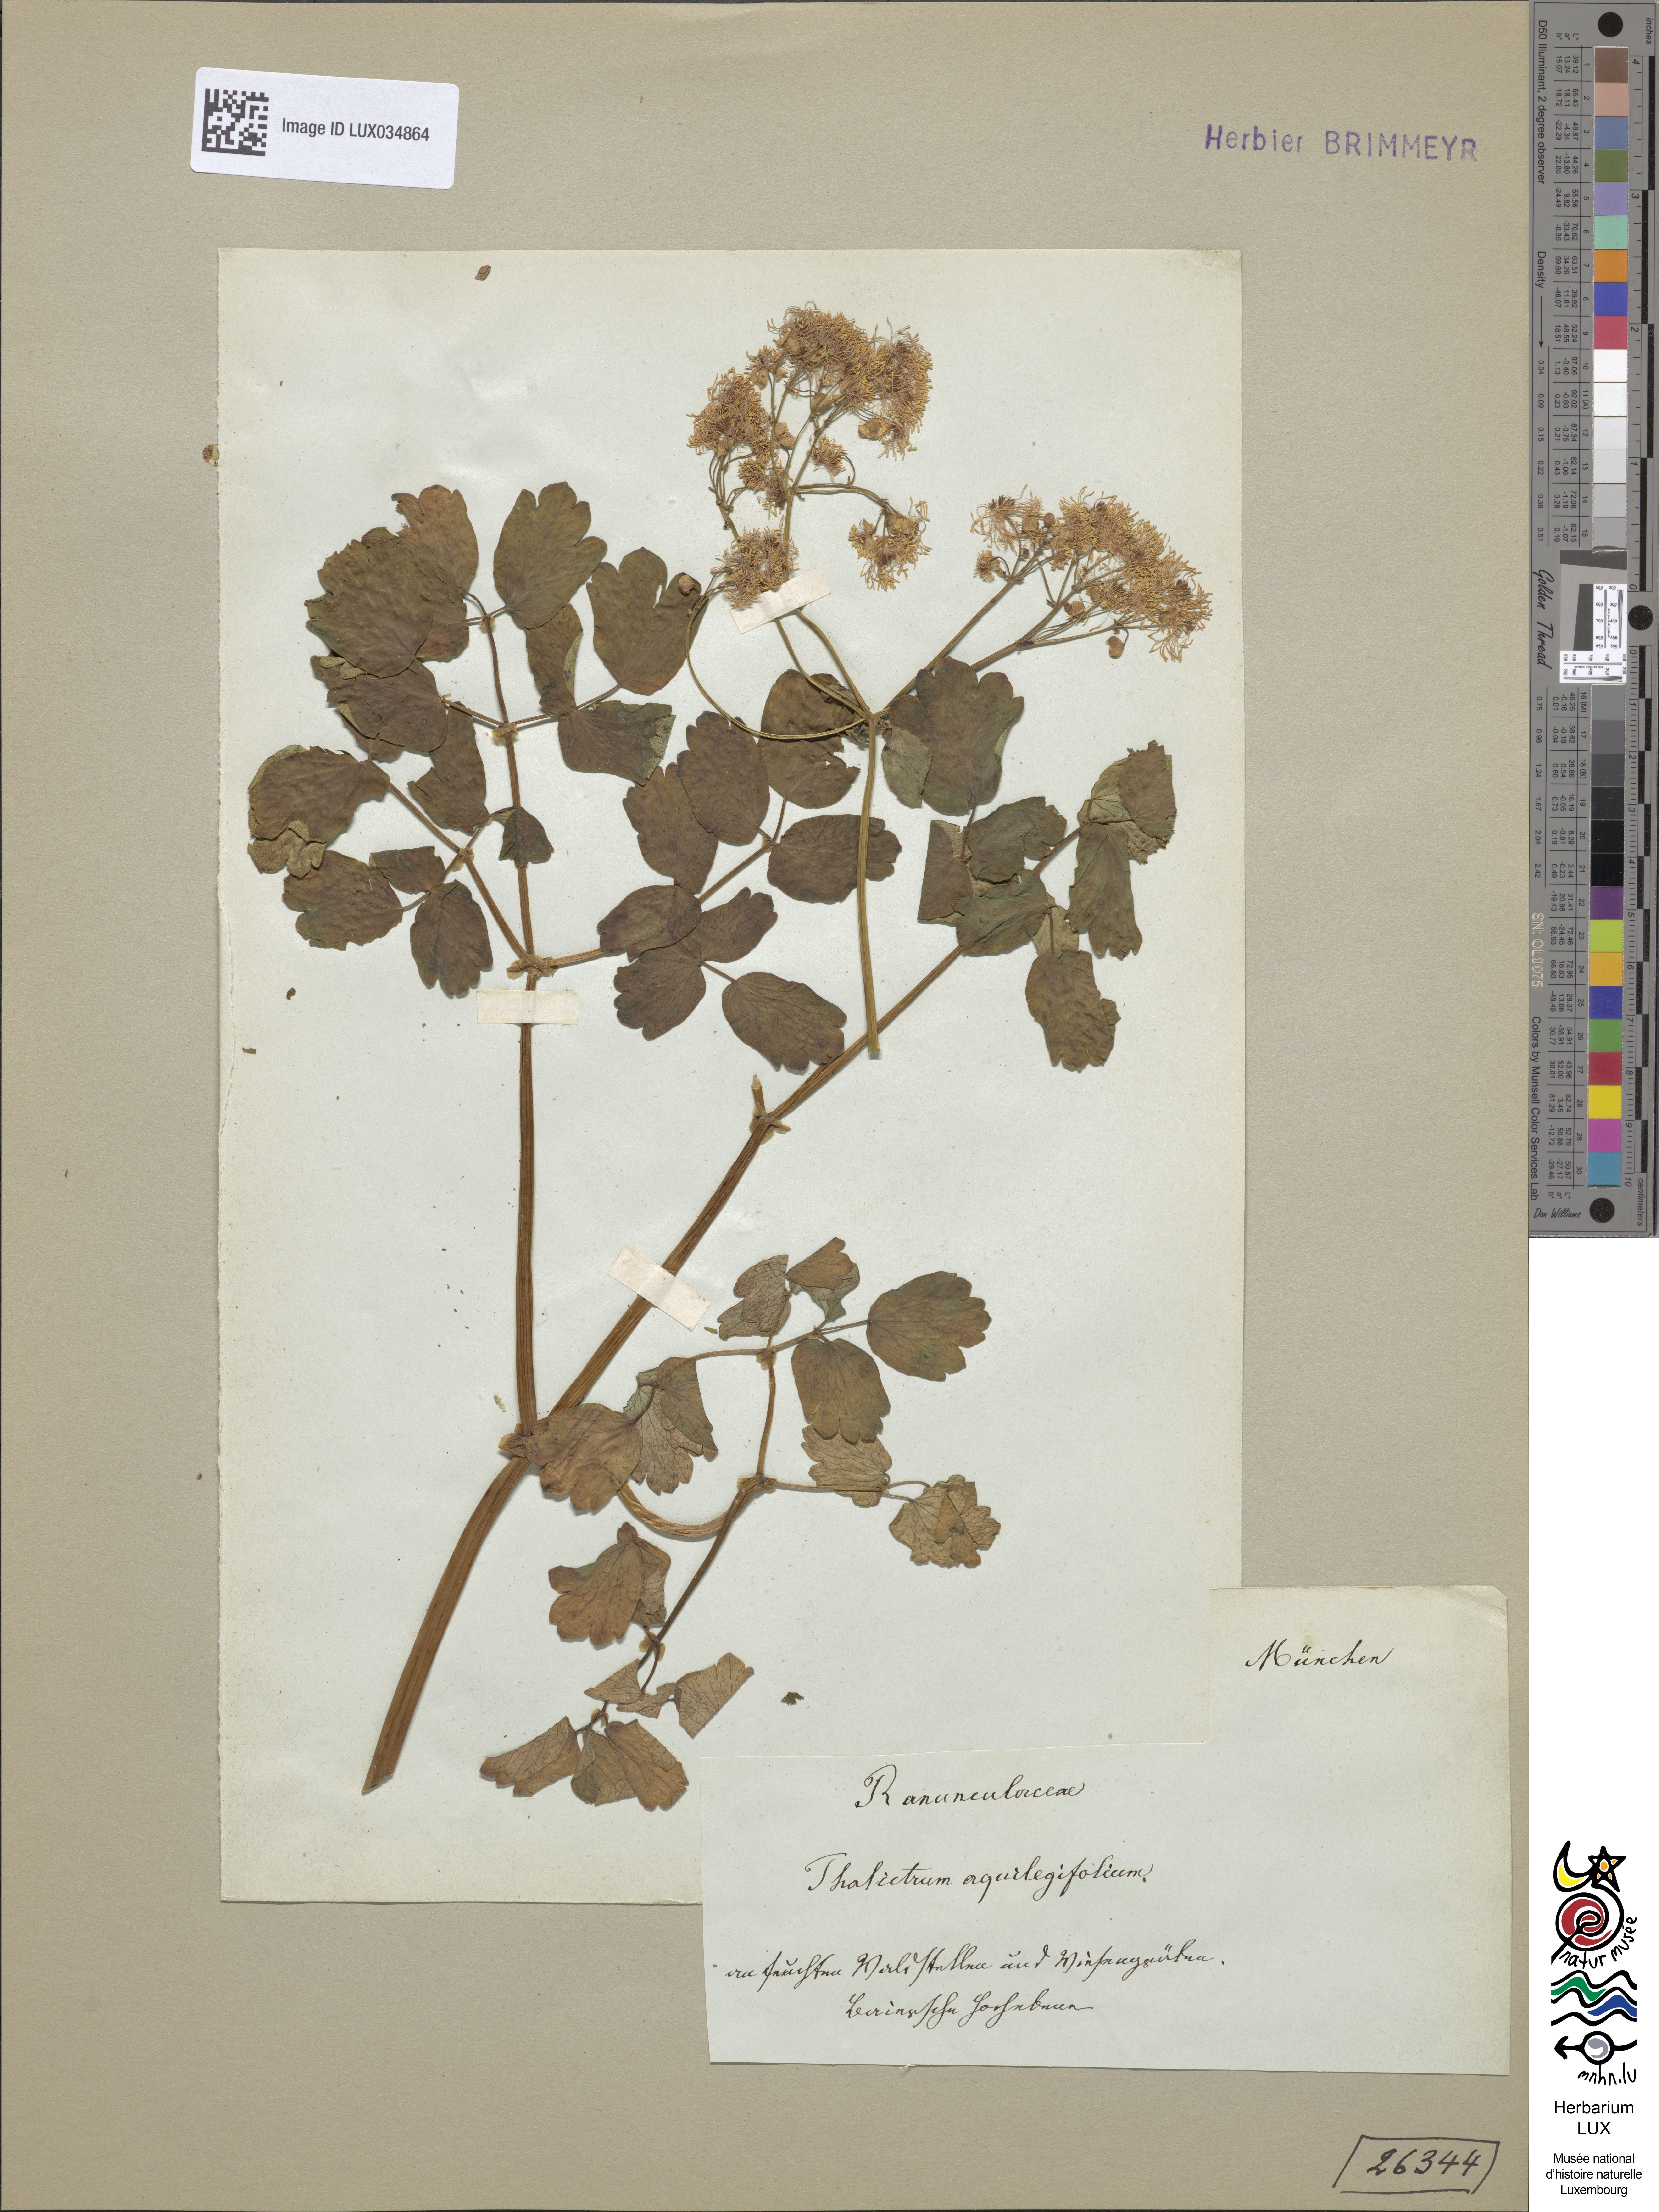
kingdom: Plantae
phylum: Tracheophyta
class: Magnoliopsida
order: Ranunculales
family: Ranunculaceae
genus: Thalictrum
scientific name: Thalictrum aquilegiifolium
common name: French meadow-rue
